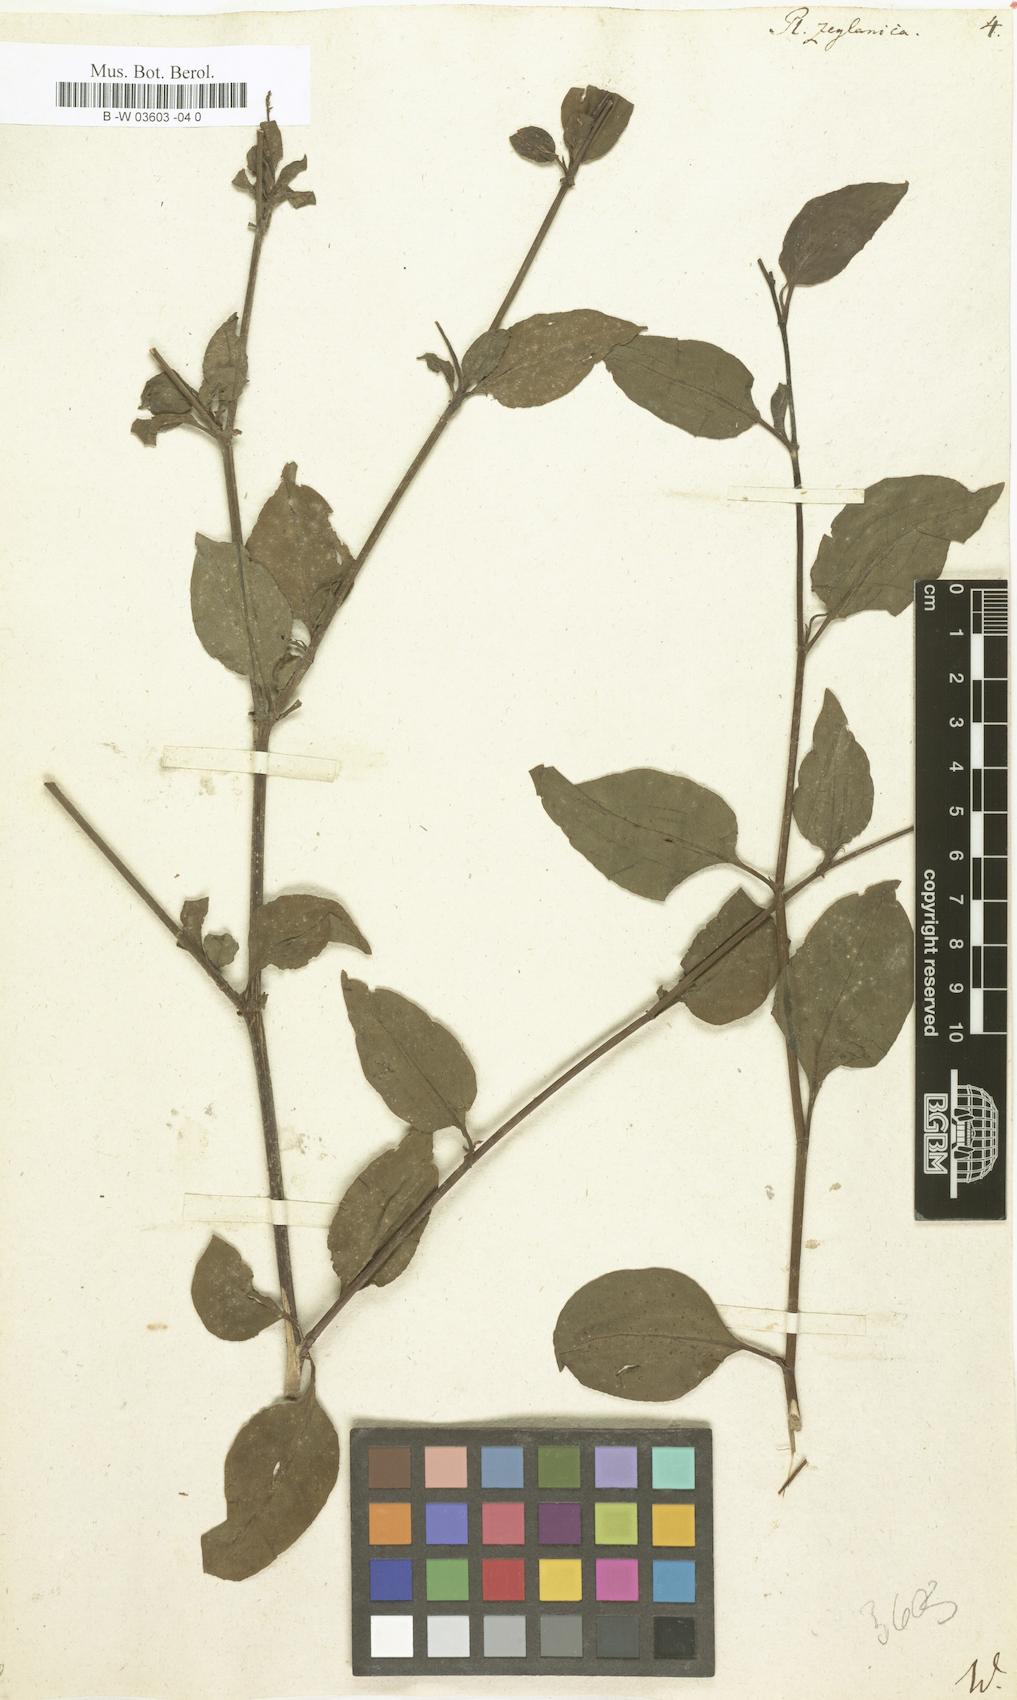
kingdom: Plantae
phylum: Tracheophyta
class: Magnoliopsida
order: Caryophyllales
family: Plumbaginaceae
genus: Plumbago
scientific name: Plumbago zeylanica
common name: Doctorbush
